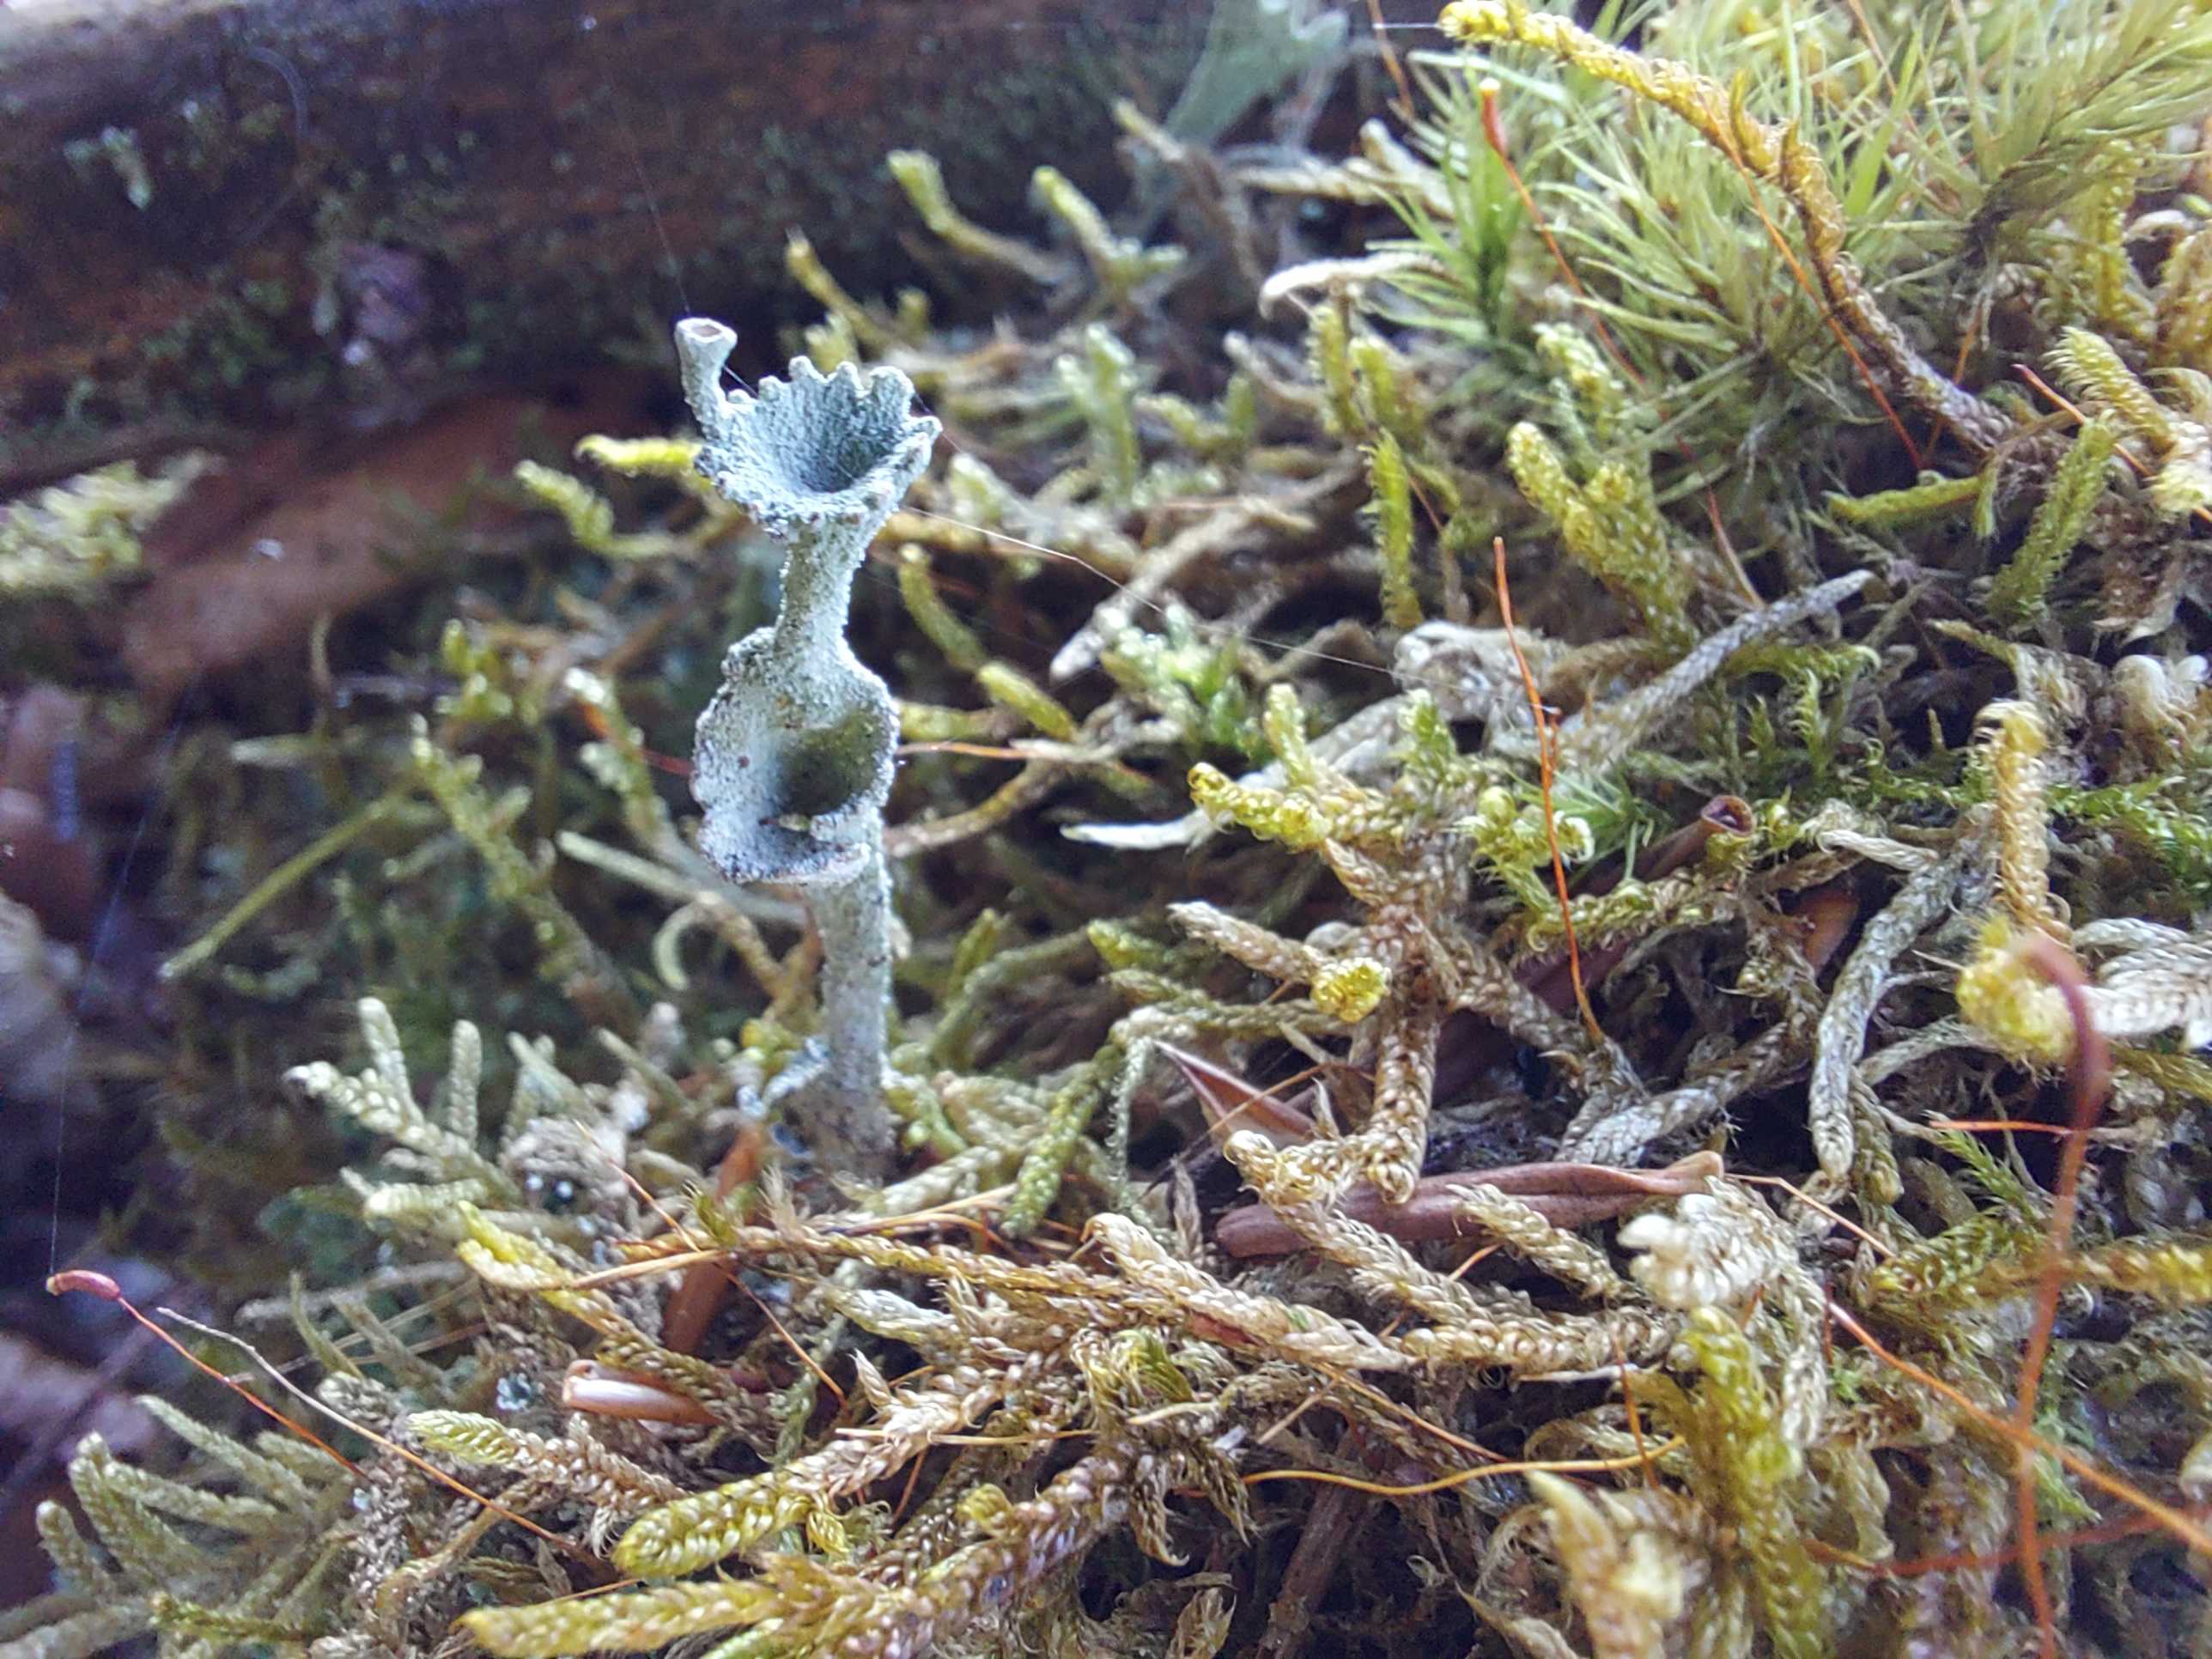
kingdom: Fungi
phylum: Ascomycota
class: Lecanoromycetes
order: Lecanorales
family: Cladoniaceae
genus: Cladonia
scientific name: Cladonia
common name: brungrøn bægerlav
